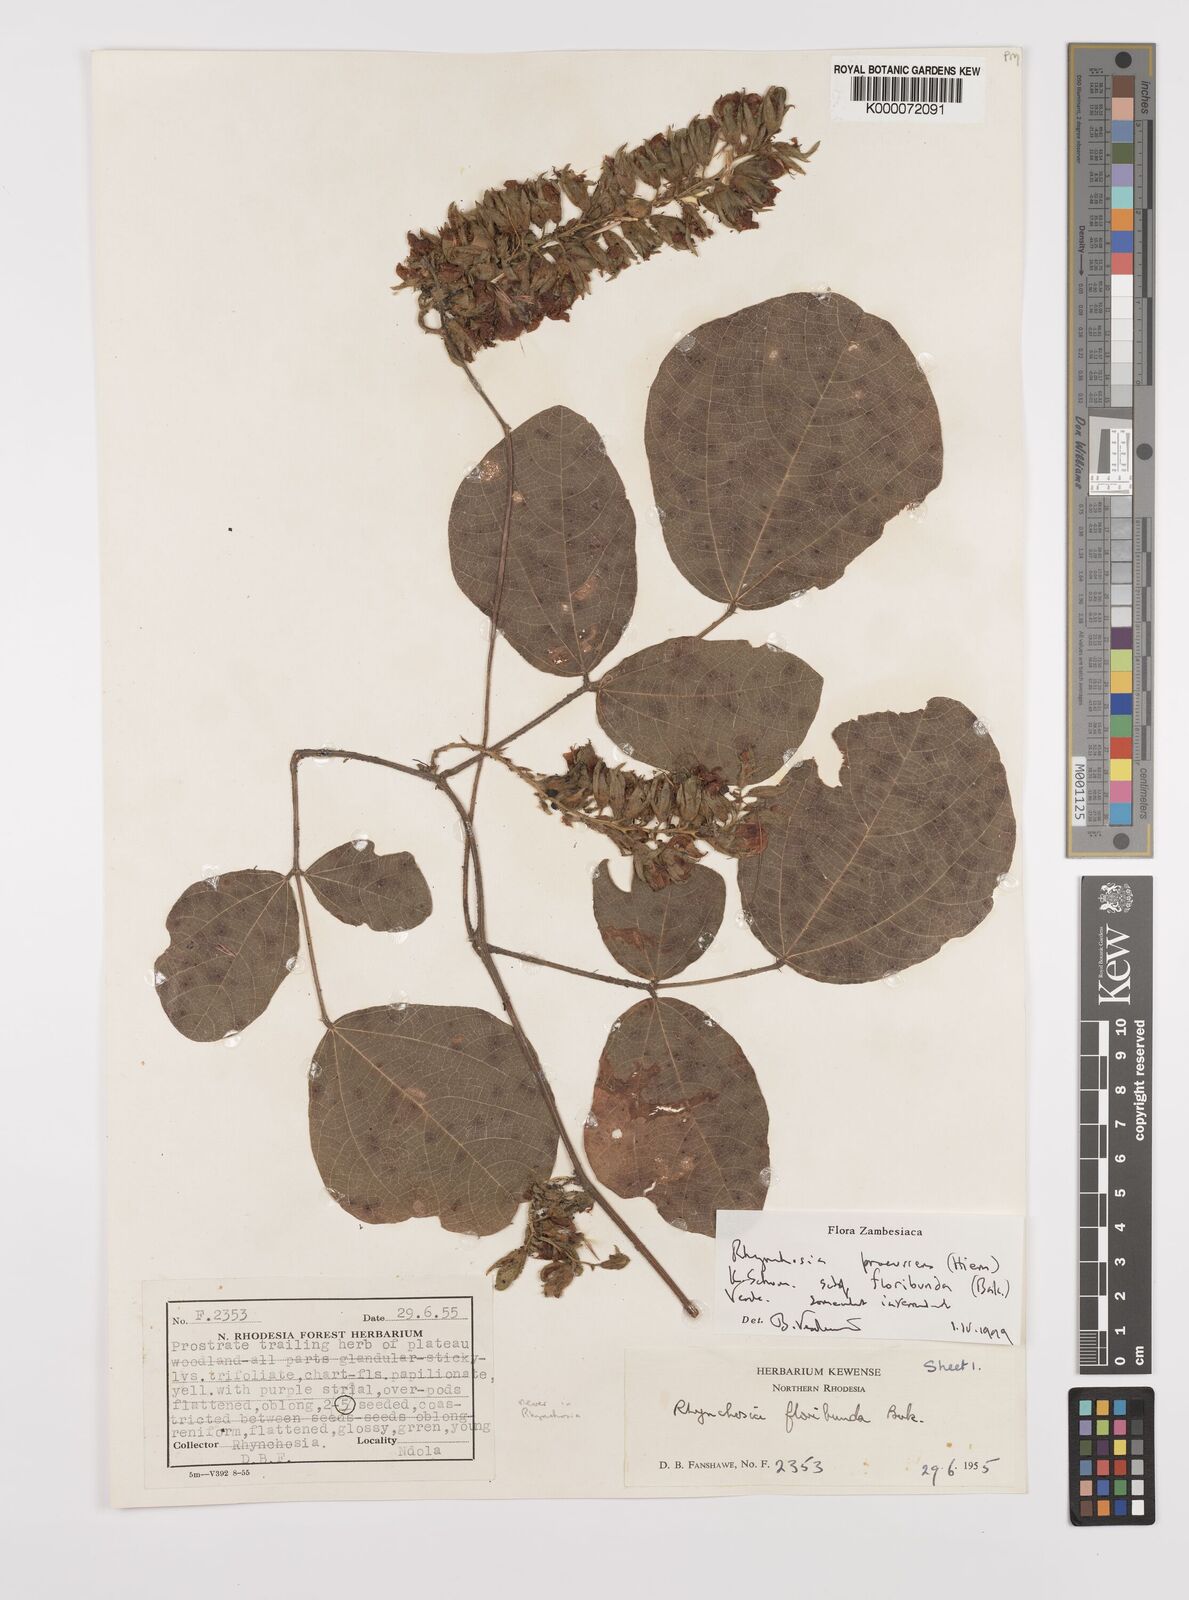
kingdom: Plantae
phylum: Tracheophyta
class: Magnoliopsida
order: Fabales
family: Fabaceae
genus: Rhynchosia
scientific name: Rhynchosia procurrens
